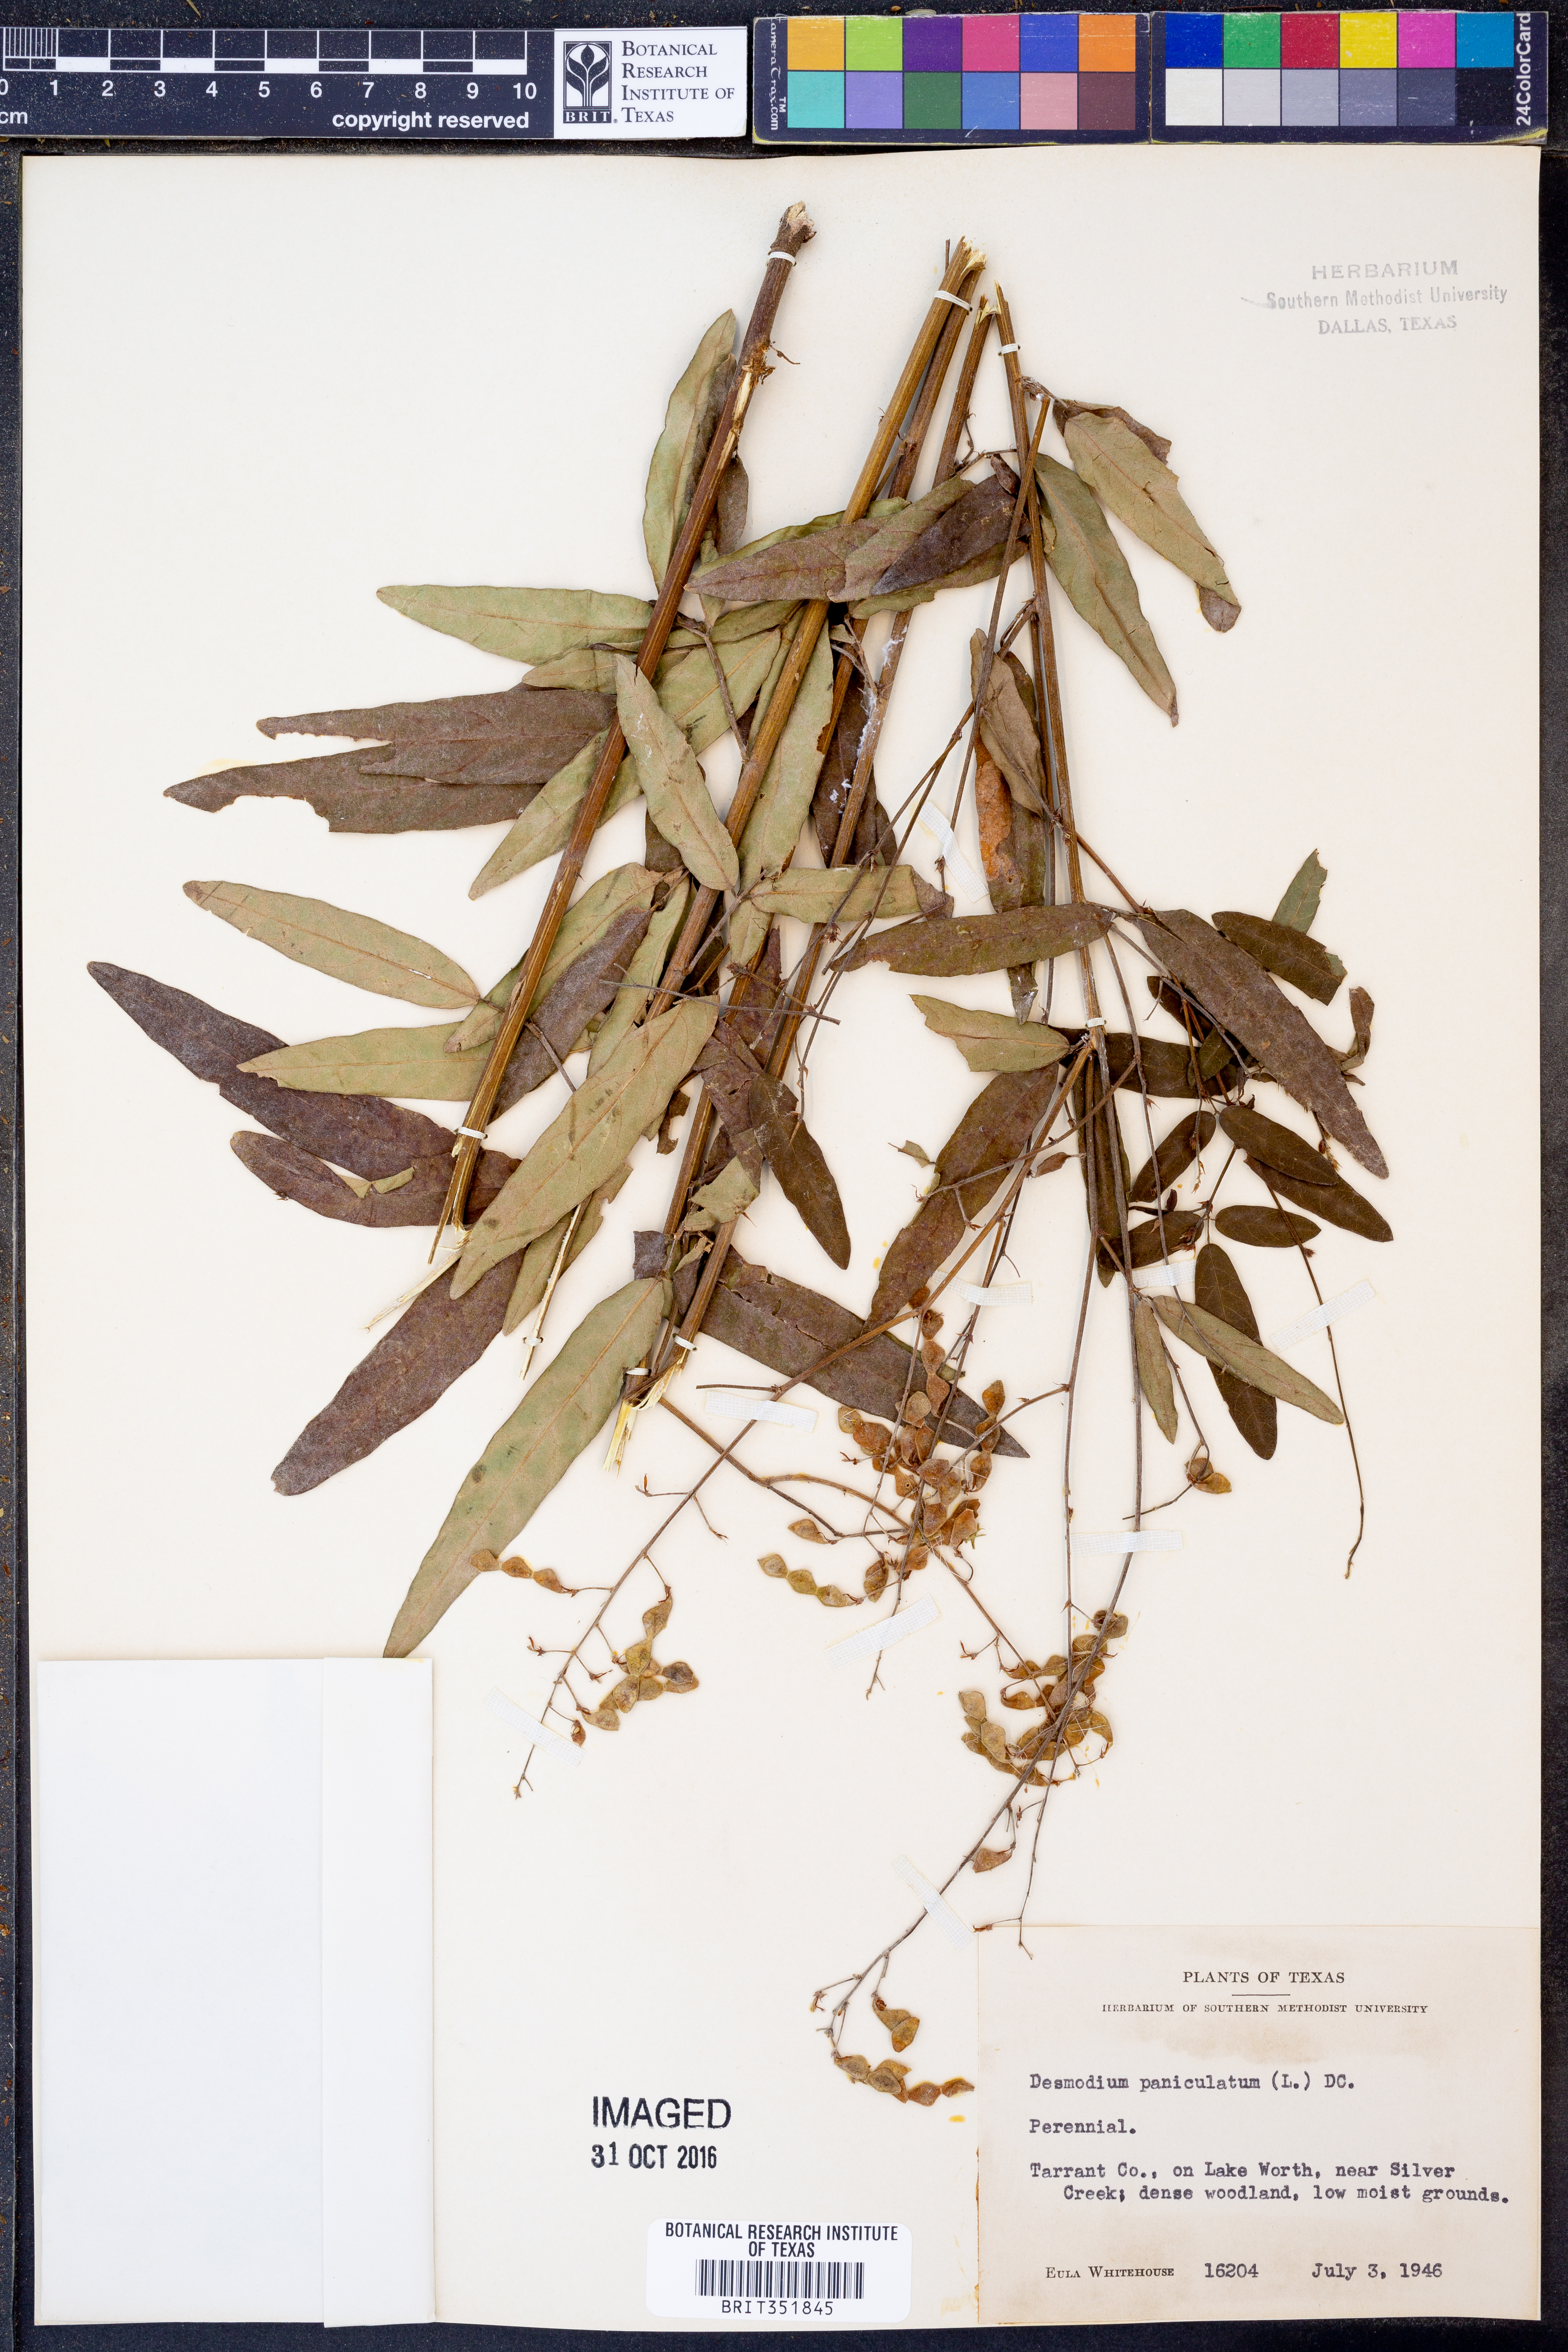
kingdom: Plantae
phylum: Tracheophyta
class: Magnoliopsida
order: Fabales
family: Fabaceae
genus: Desmodium
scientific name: Desmodium paniculatum
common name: Panicled tick-clover
